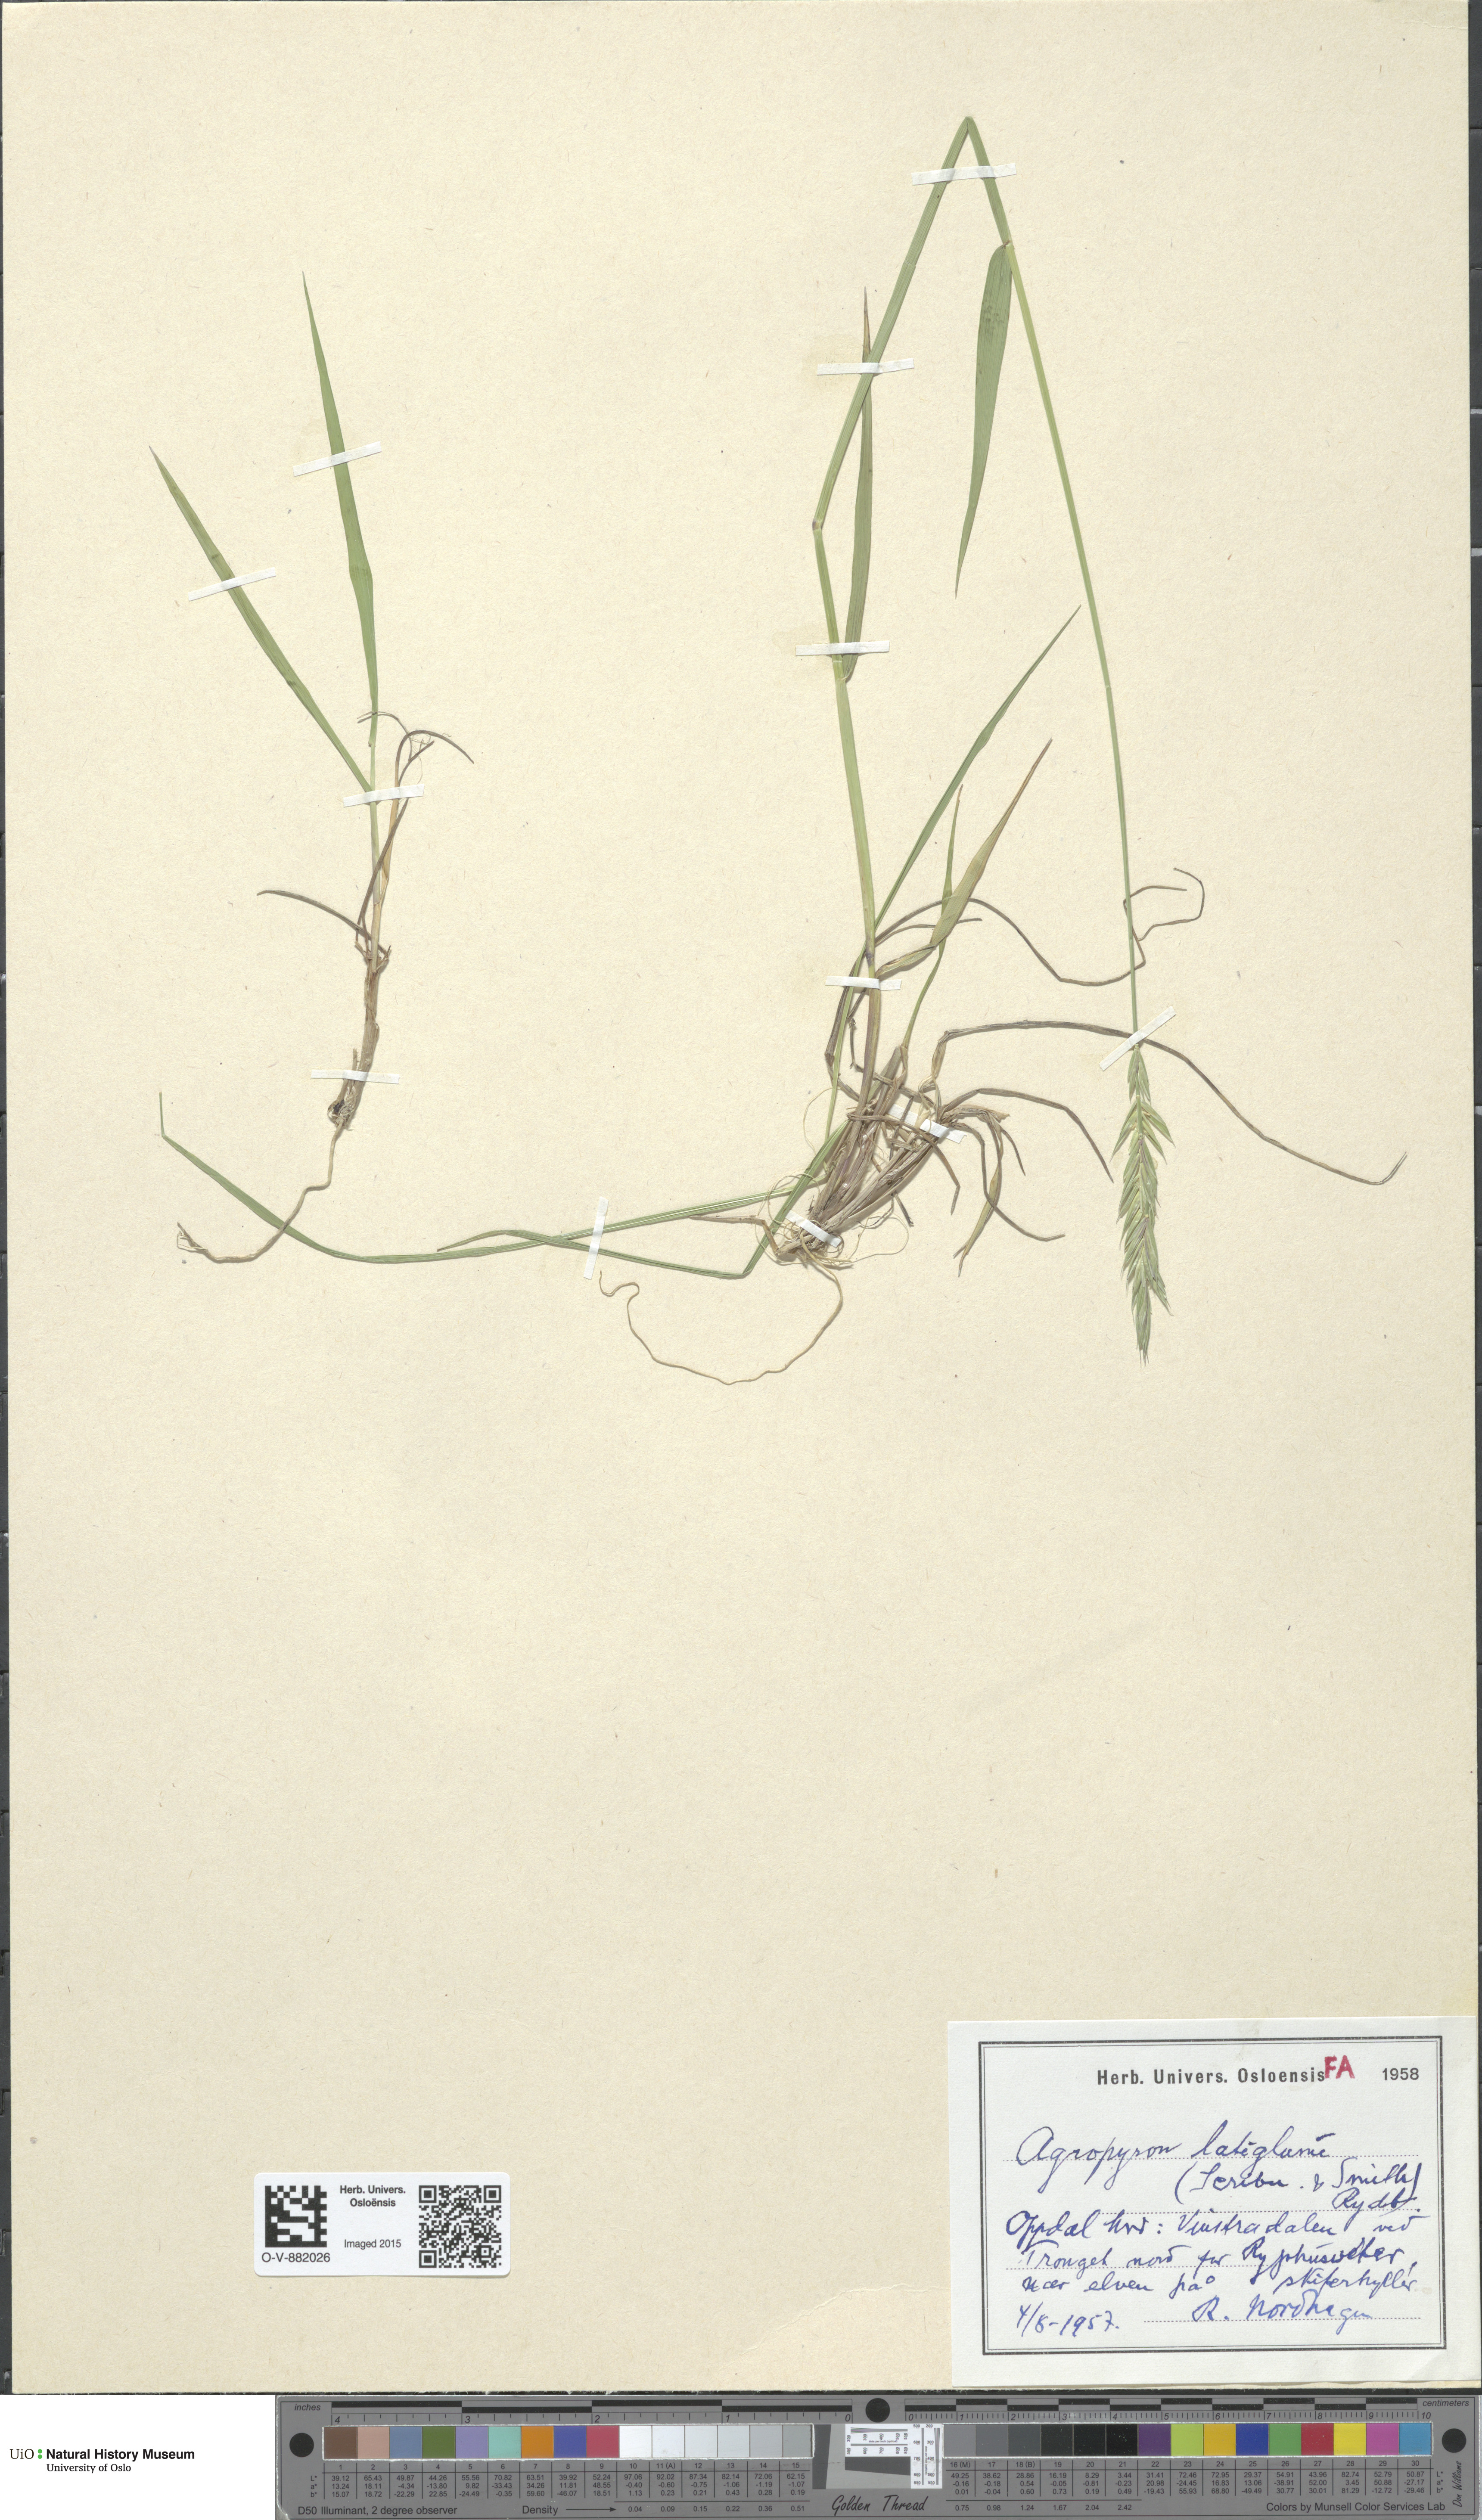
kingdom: Plantae
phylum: Tracheophyta
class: Liliopsida
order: Poales
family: Poaceae
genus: Elymus
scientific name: Elymus macrourus
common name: Northern wheatgrass
